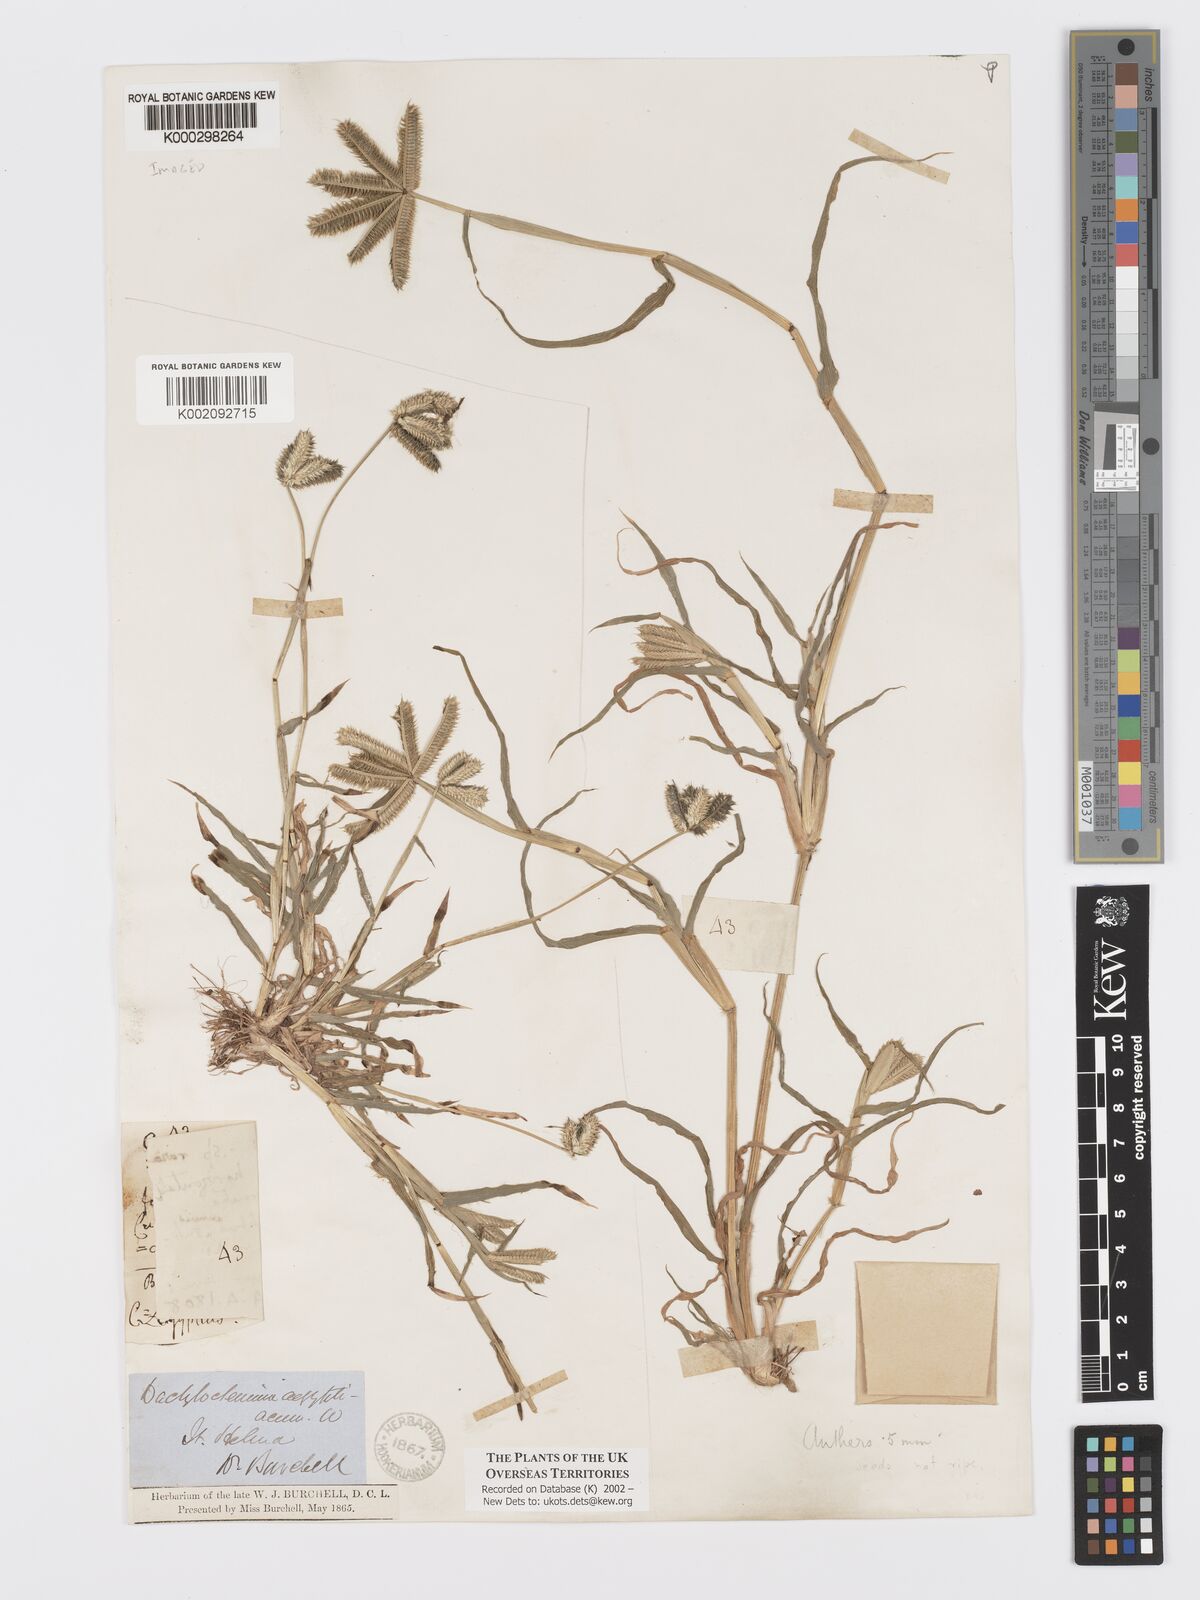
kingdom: Plantae
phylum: Tracheophyta
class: Liliopsida
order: Poales
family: Poaceae
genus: Dactyloctenium
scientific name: Dactyloctenium aegyptium
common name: Egyptian grass
